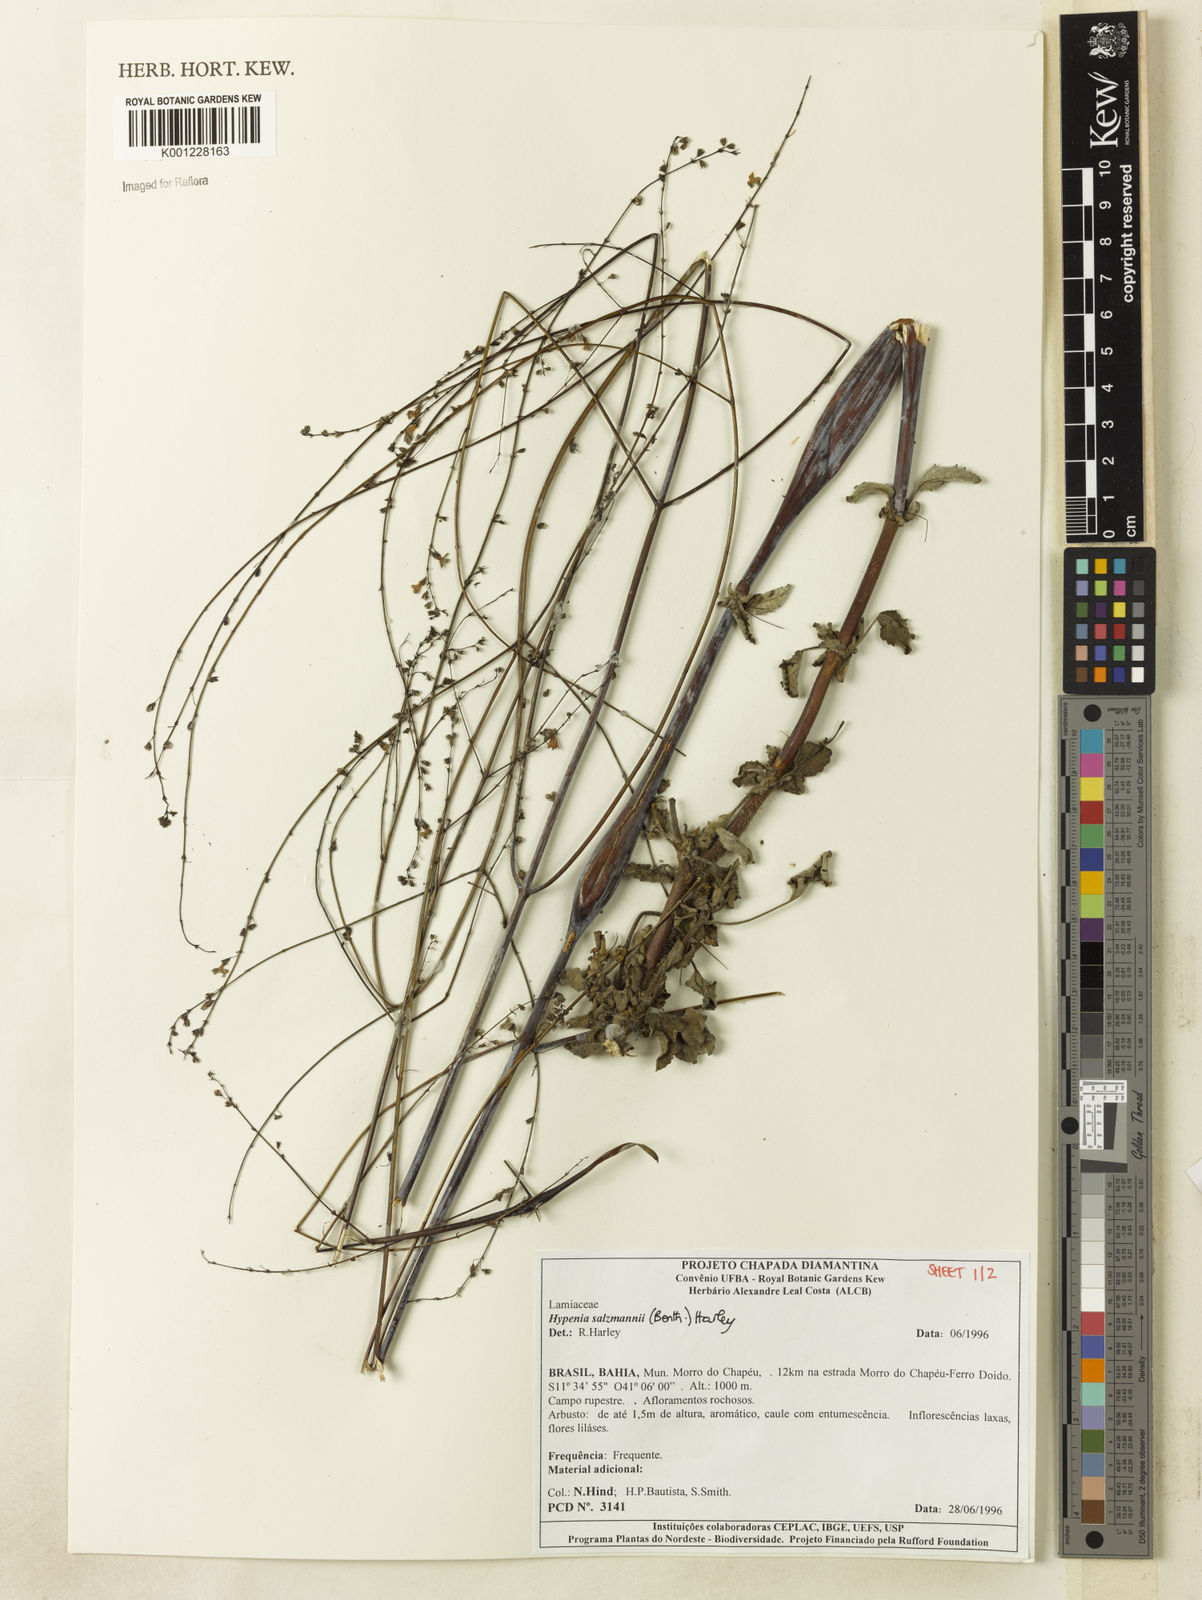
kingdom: Plantae
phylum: Tracheophyta
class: Magnoliopsida
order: Lamiales
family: Lamiaceae
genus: Hypenia
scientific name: Hypenia salzmannii
